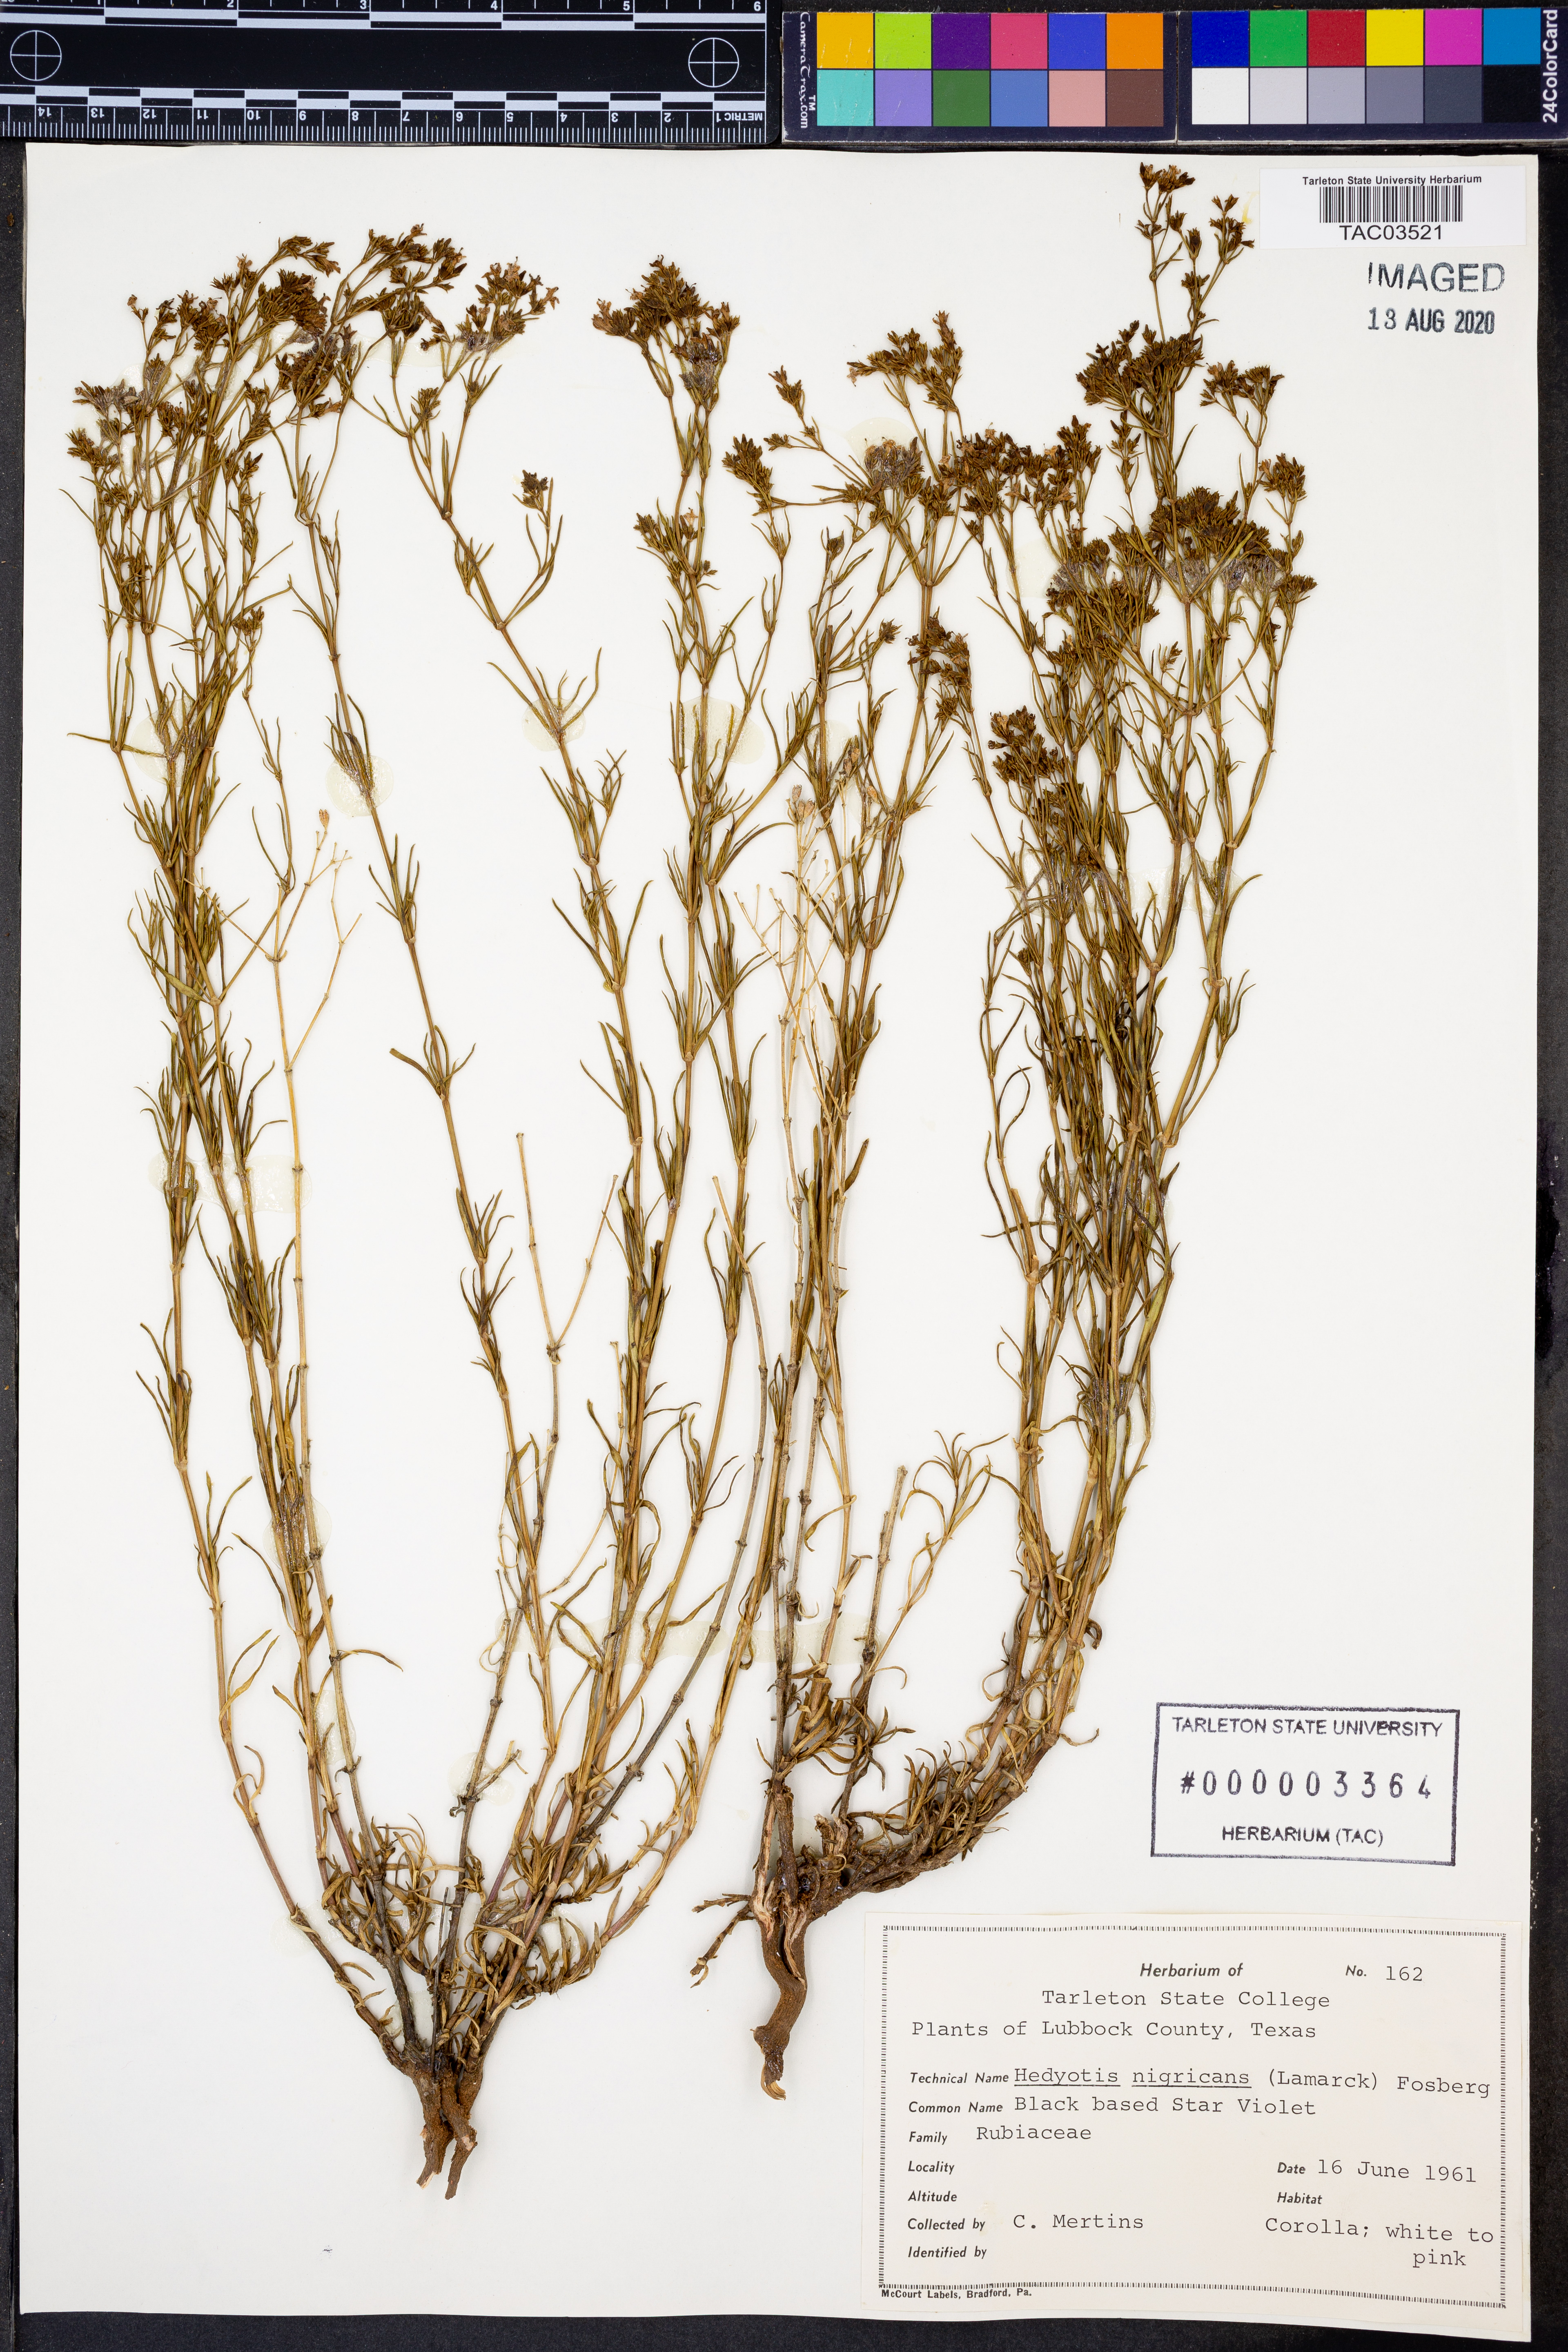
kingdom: Plantae
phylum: Tracheophyta
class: Magnoliopsida
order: Gentianales
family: Rubiaceae
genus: Stenaria
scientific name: Stenaria nigricans
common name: Diamondflowers
